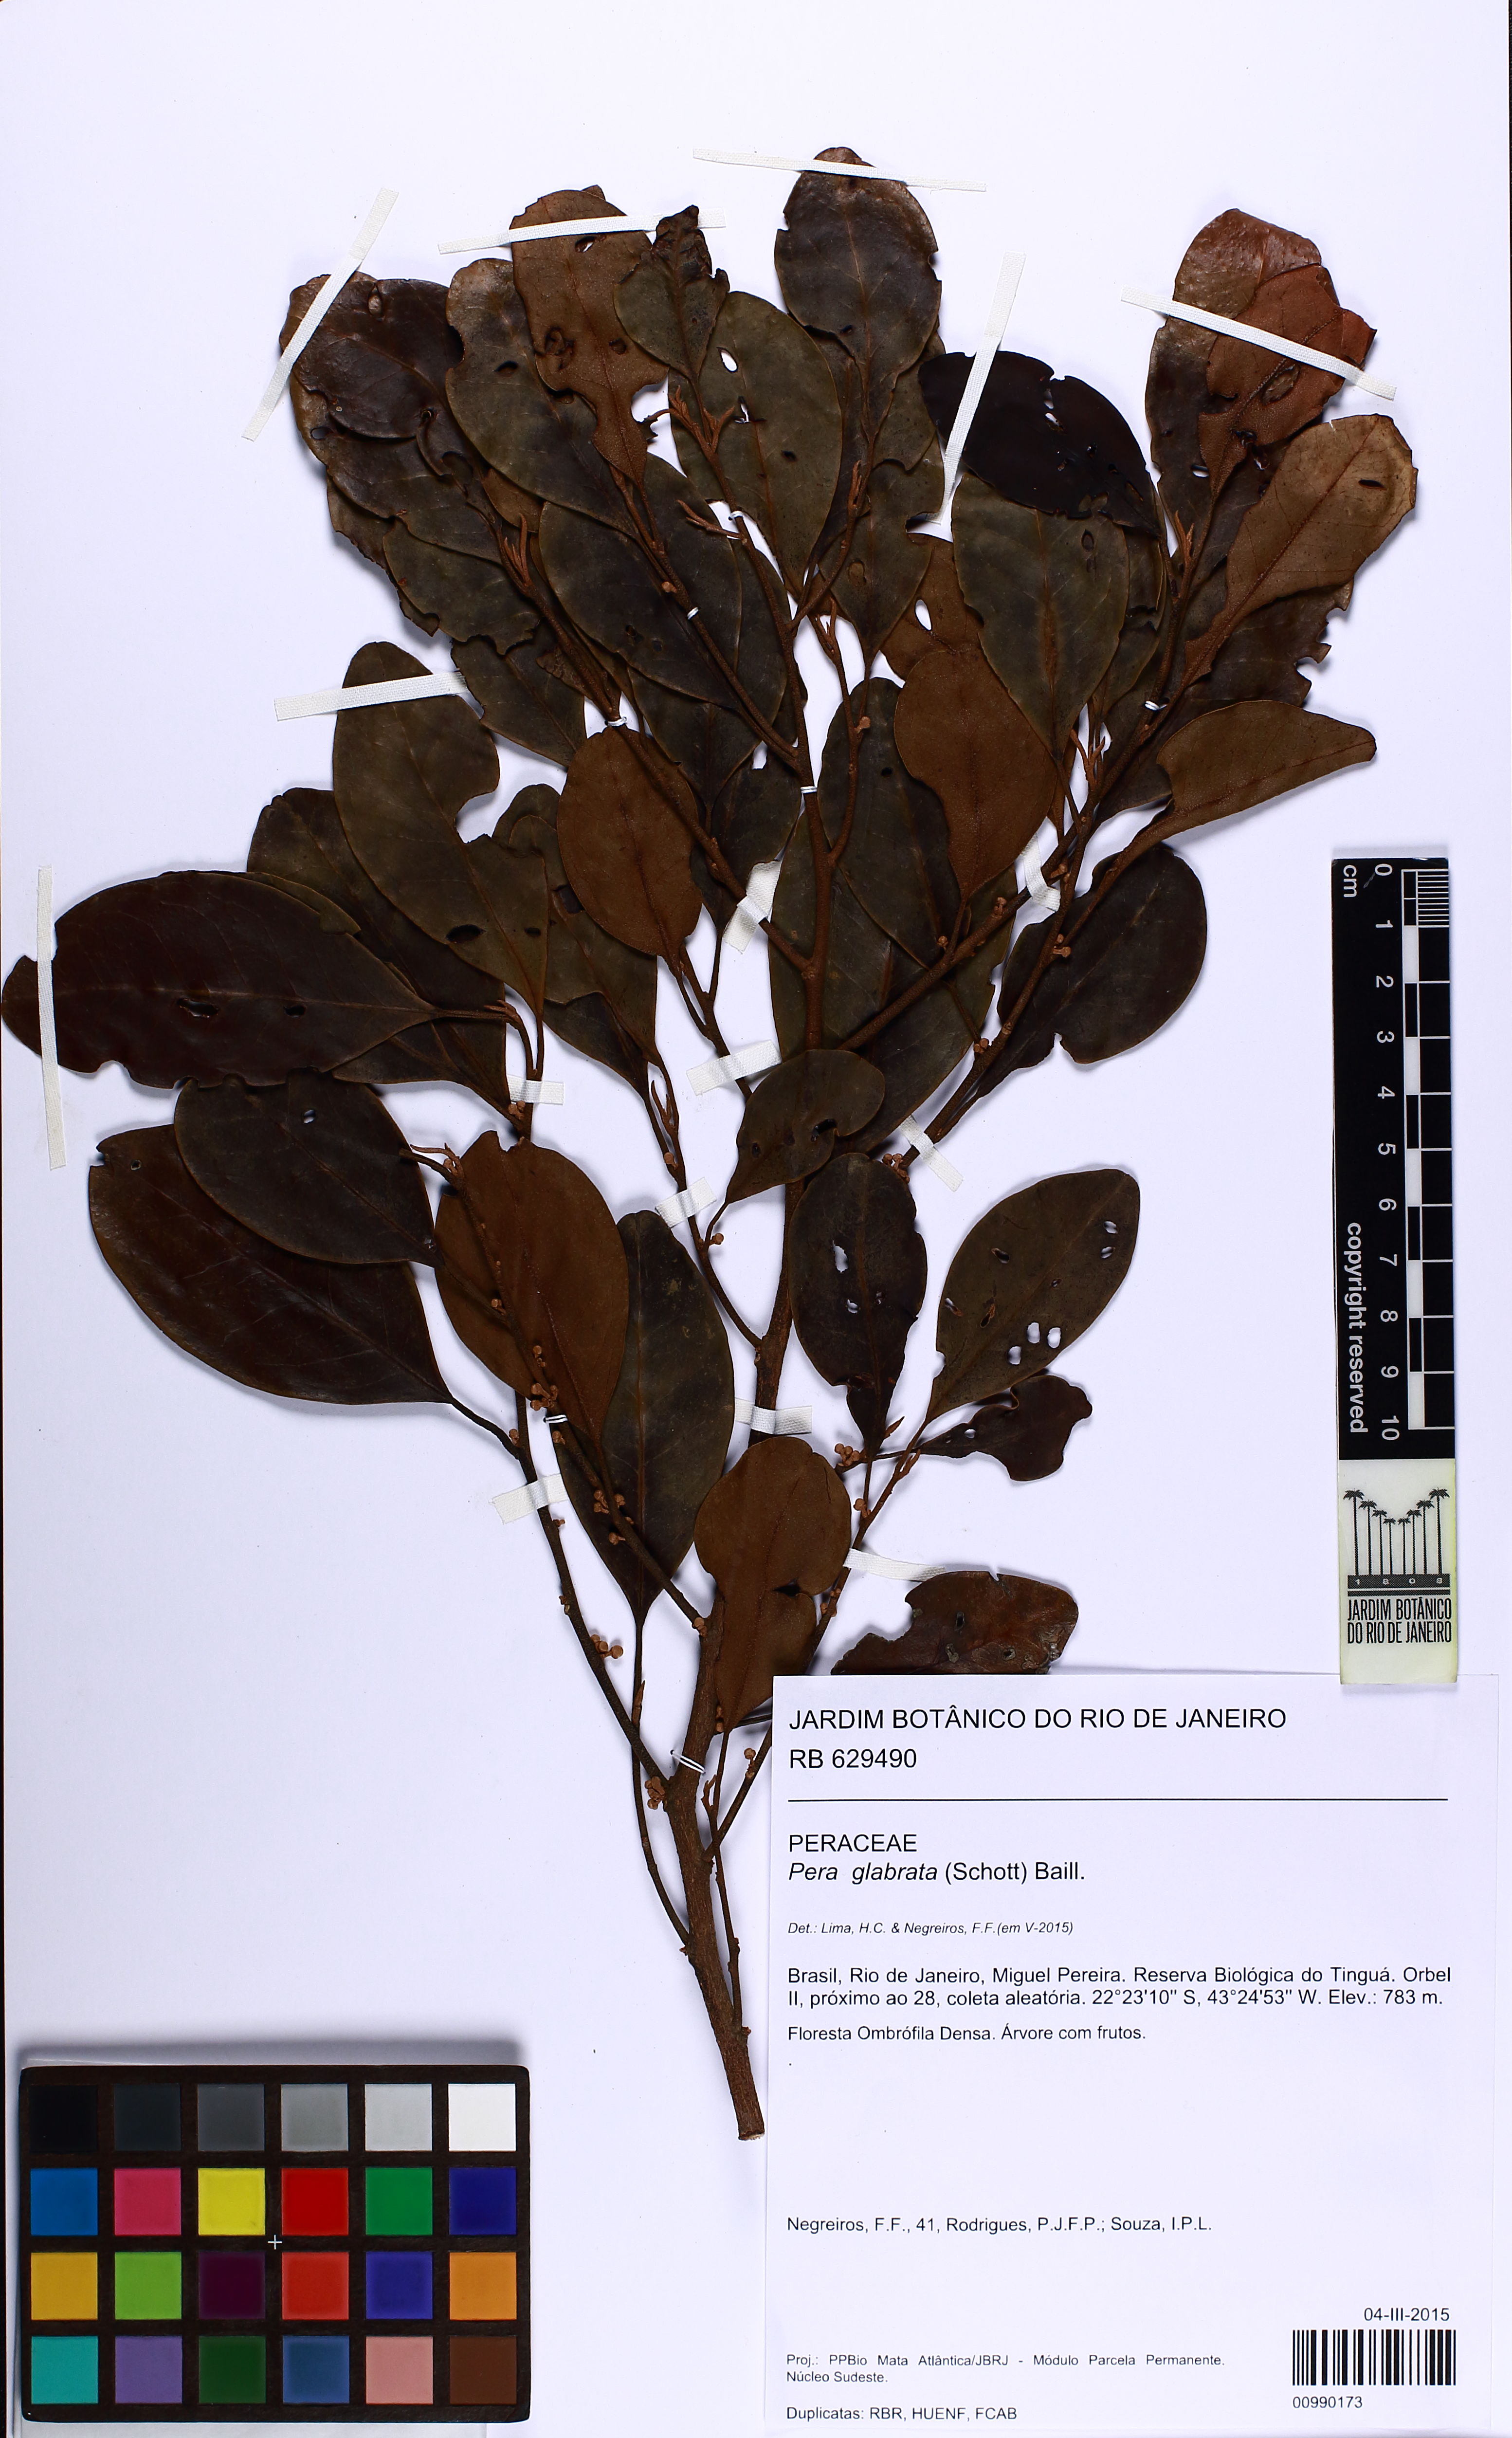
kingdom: Plantae
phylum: Tracheophyta
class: Magnoliopsida
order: Malpighiales
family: Peraceae
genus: Pera
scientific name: Pera glabrata
